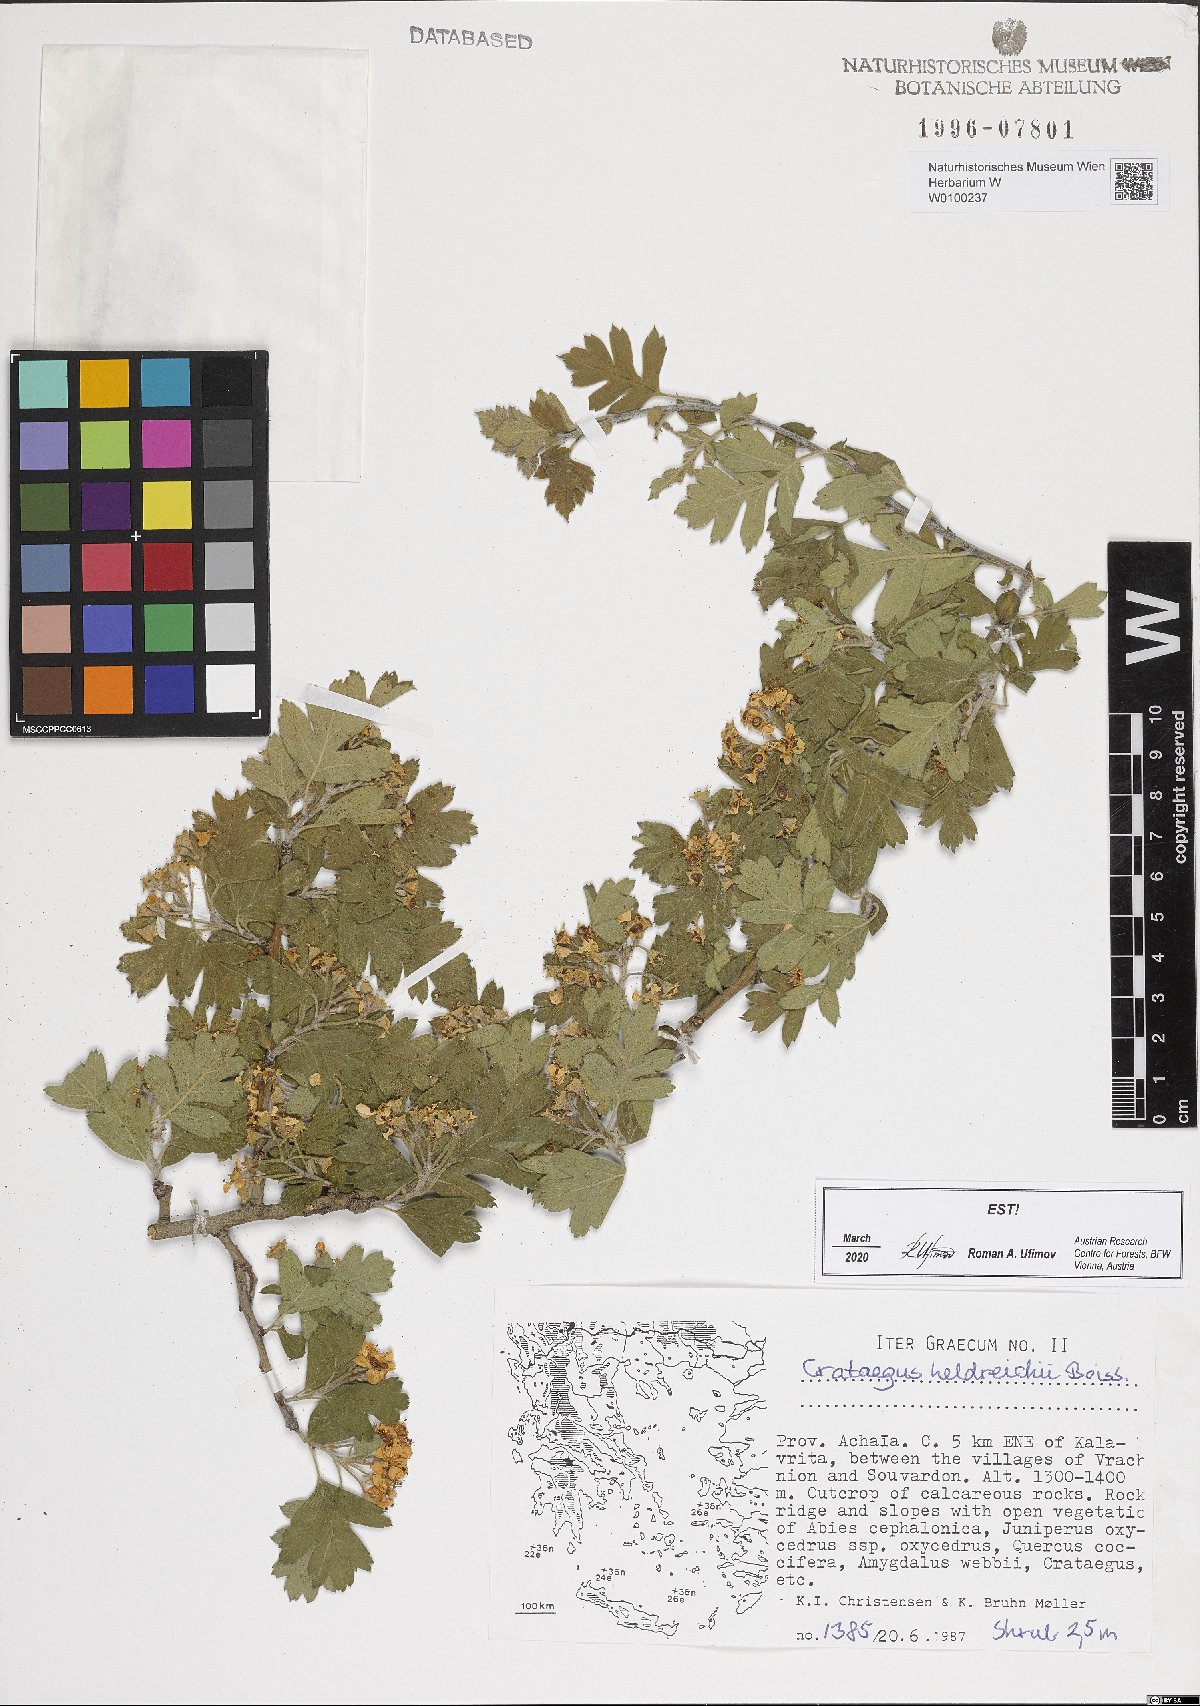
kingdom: Plantae
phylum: Tracheophyta
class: Magnoliopsida
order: Rosales
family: Rosaceae
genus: Crataegus
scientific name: Crataegus heldreichii
